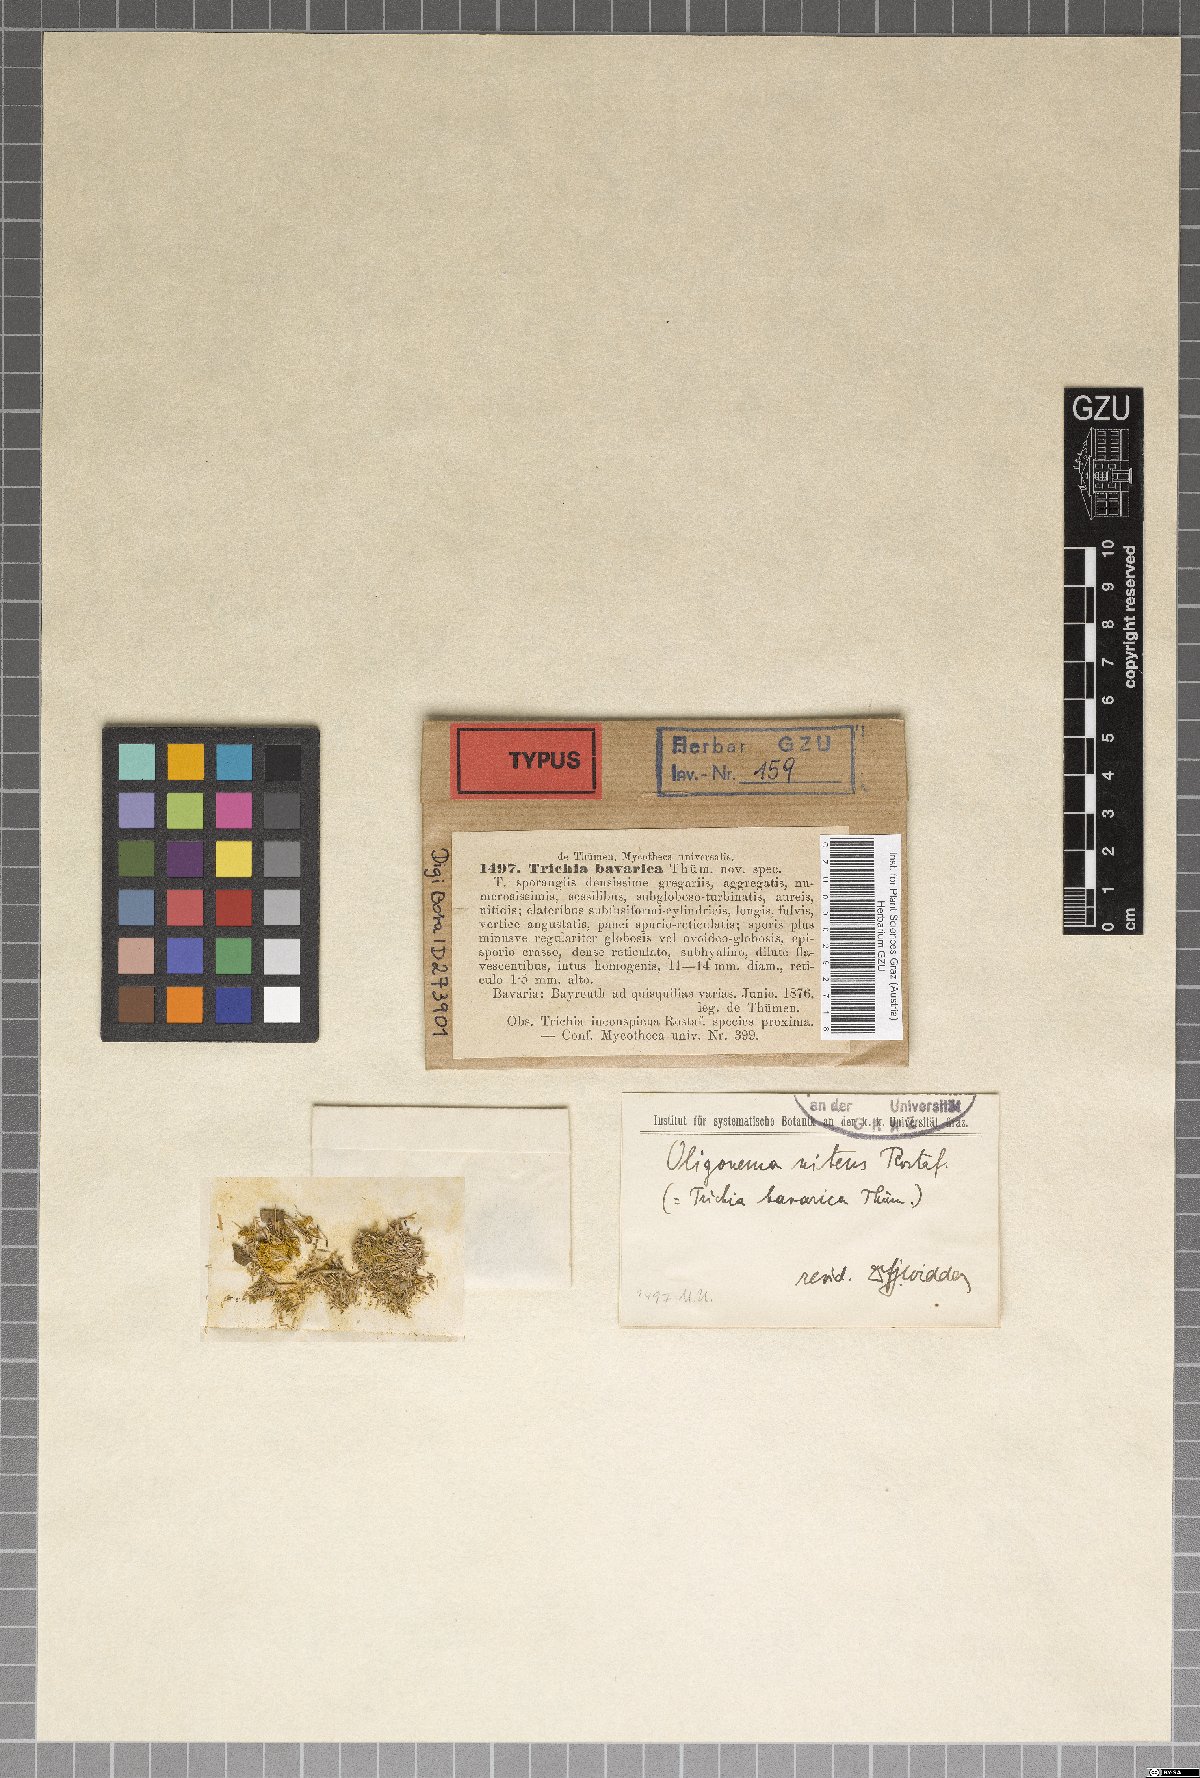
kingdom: Protozoa
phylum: Mycetozoa
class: Myxomycetes
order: Trichiales
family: Trichiaceae
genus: Oligonema
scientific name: Oligonema schweinitzii
